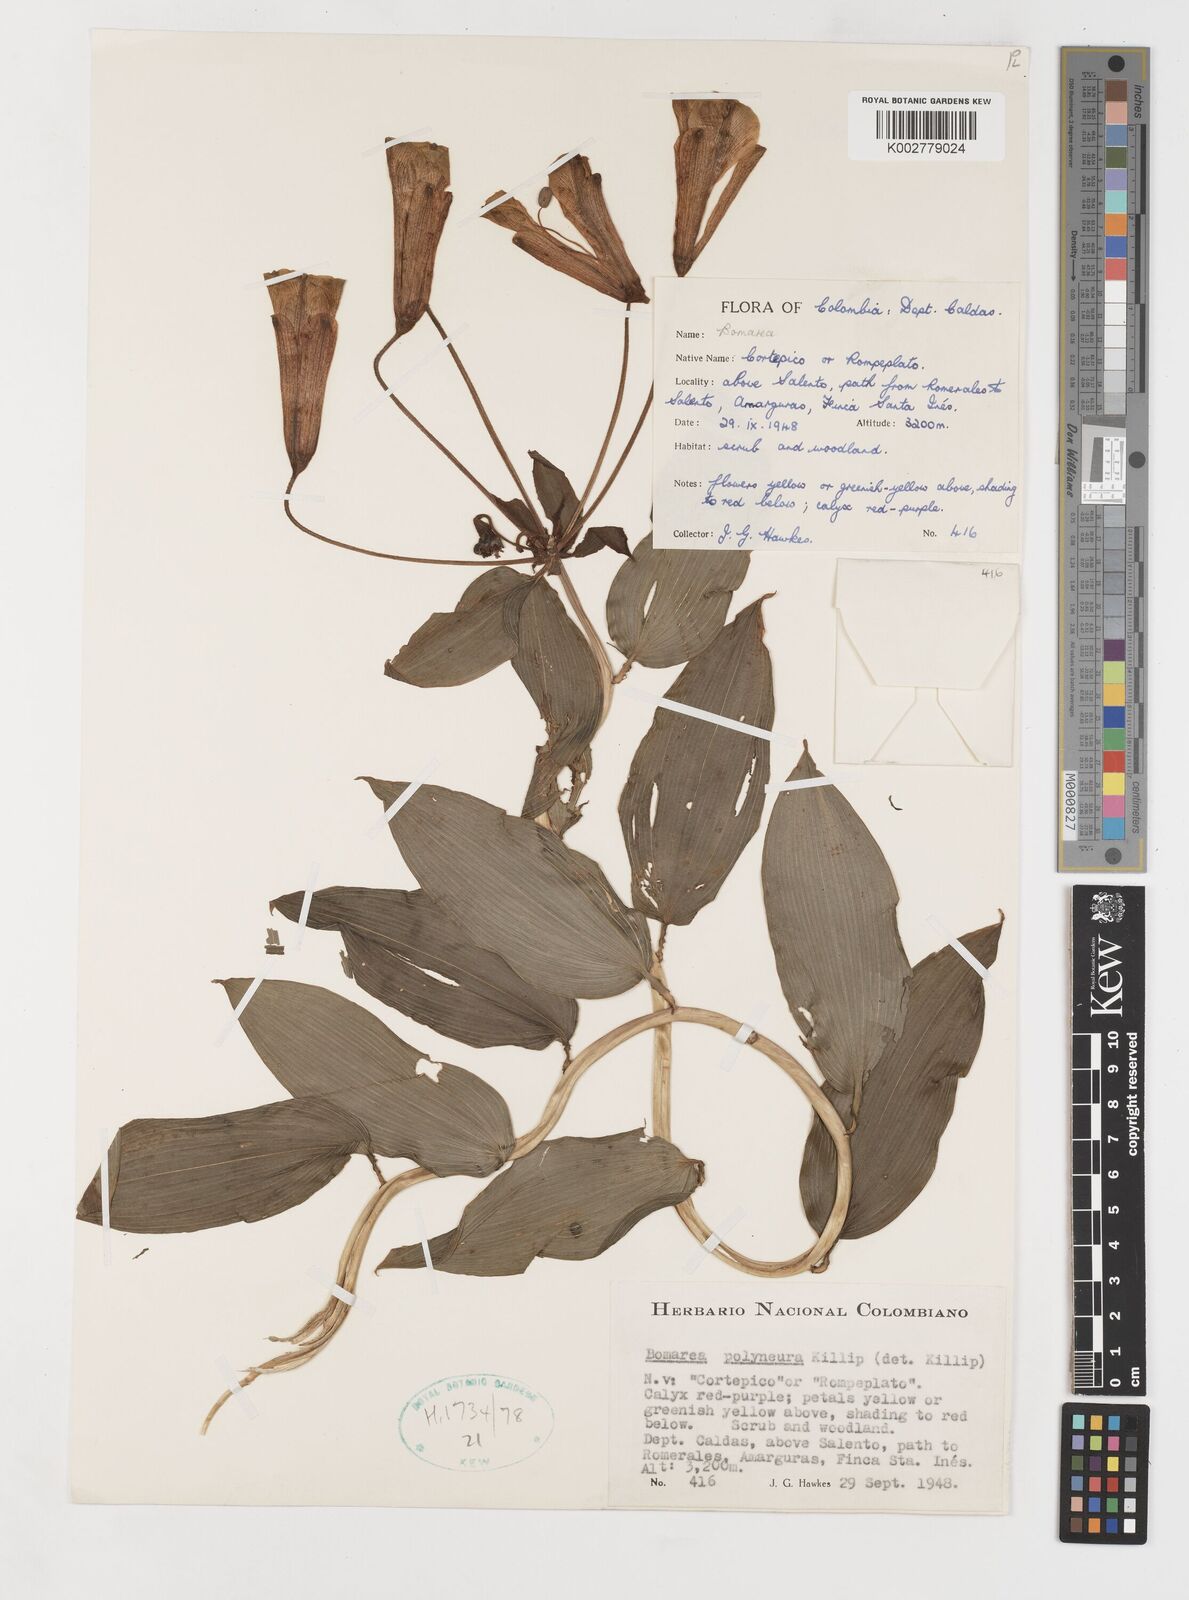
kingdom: Plantae
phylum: Tracheophyta
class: Liliopsida
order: Liliales
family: Alstroemeriaceae
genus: Bomarea
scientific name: Bomarea
